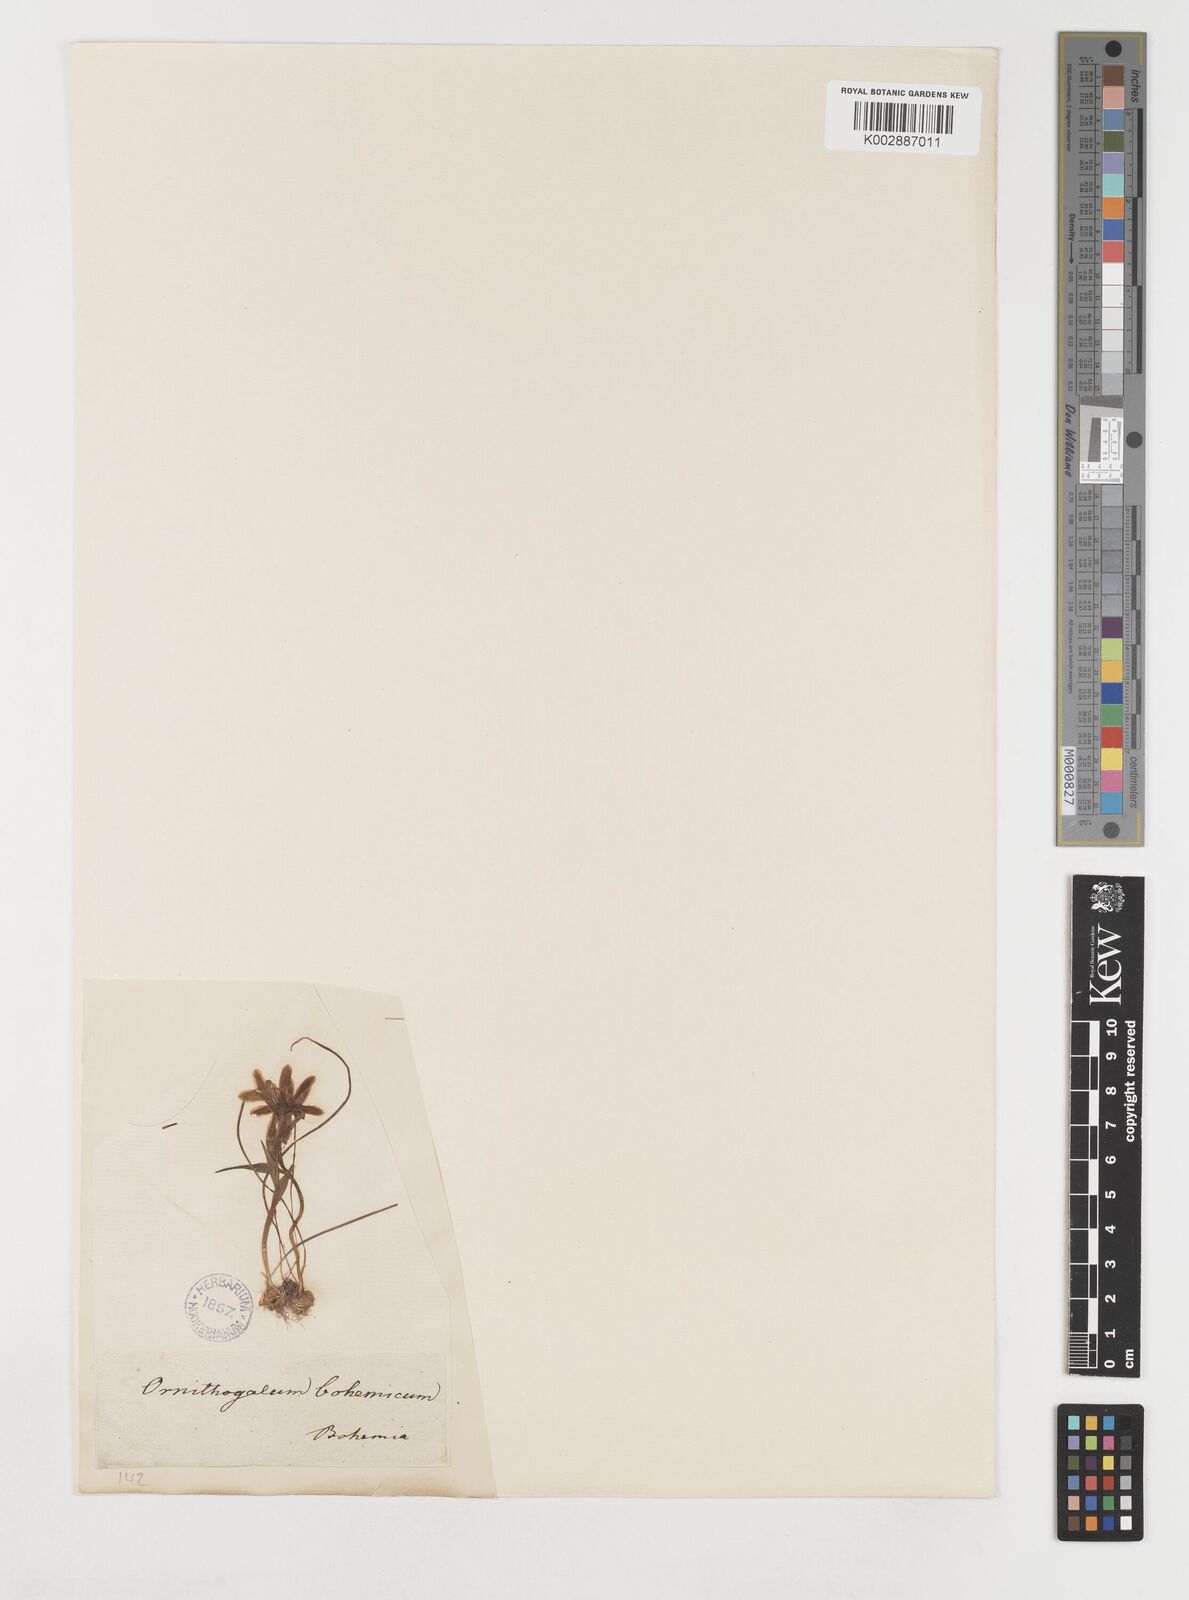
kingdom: Plantae
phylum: Tracheophyta
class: Liliopsida
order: Liliales
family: Liliaceae
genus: Gagea
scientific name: Gagea bohemica
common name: Early star-of-bethlehem
